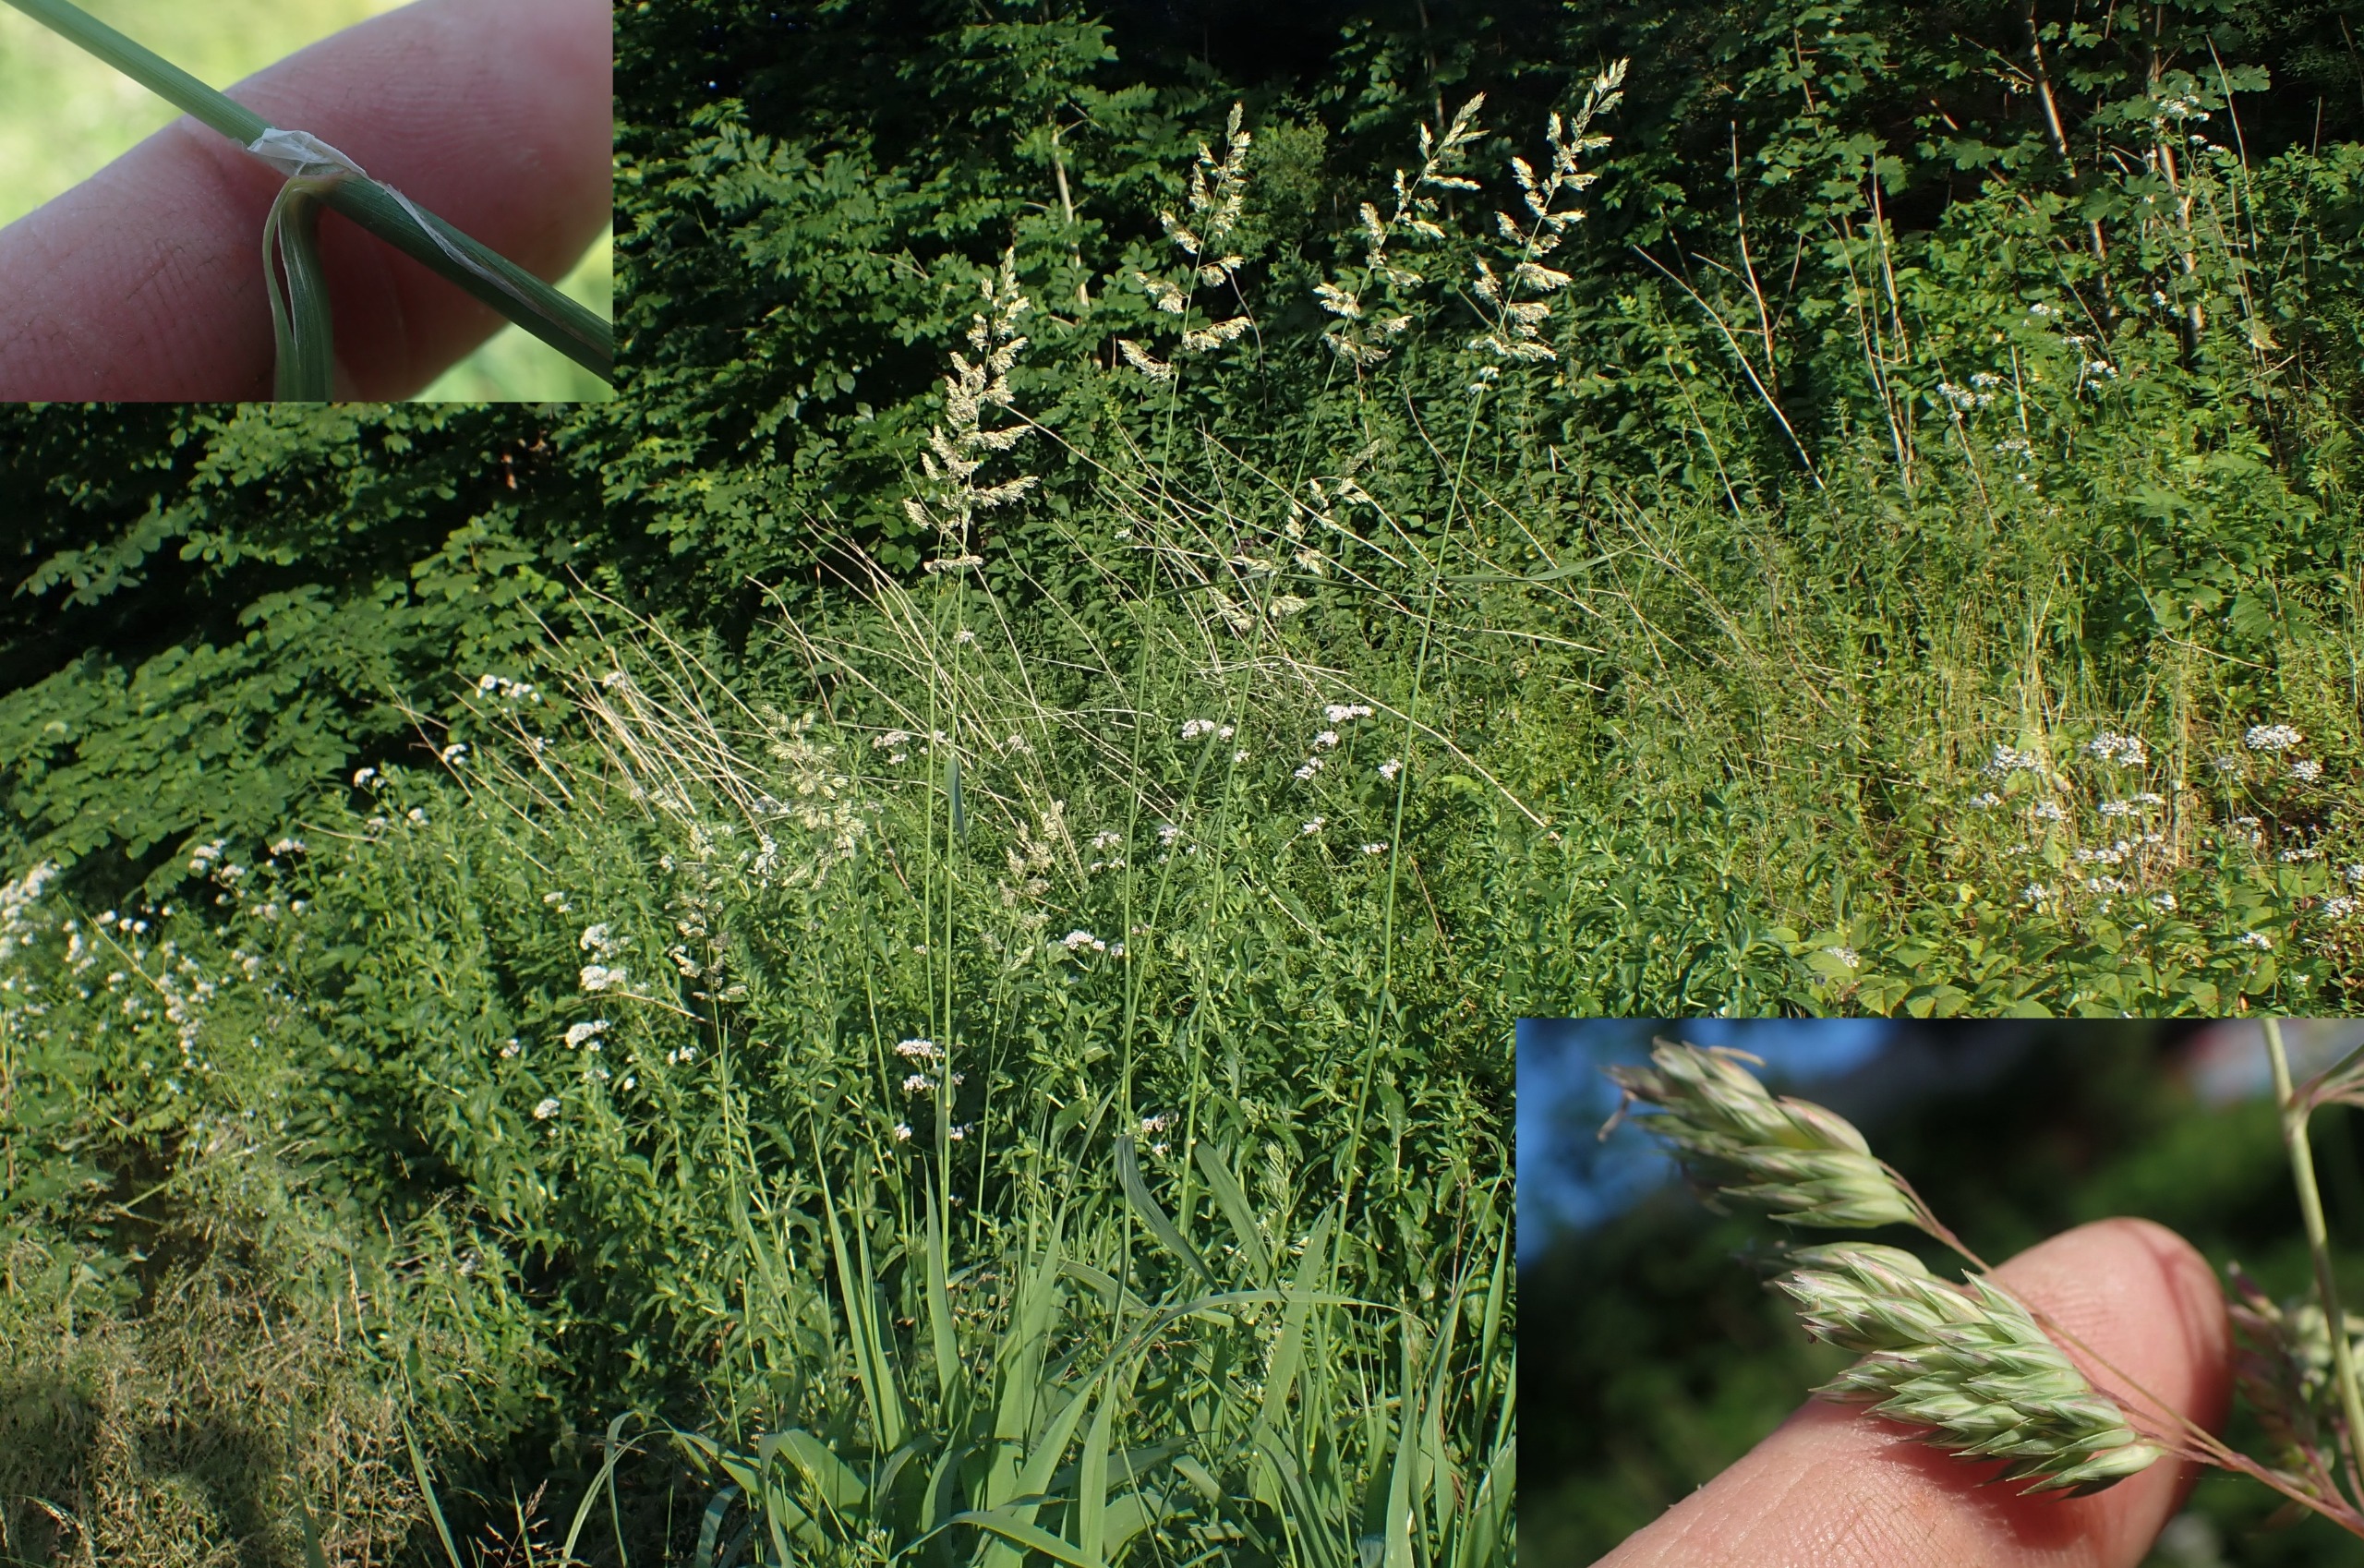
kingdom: Plantae
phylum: Tracheophyta
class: Liliopsida
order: Poales
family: Poaceae
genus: Phalaris
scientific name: Phalaris arundinacea
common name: Rørgræs
